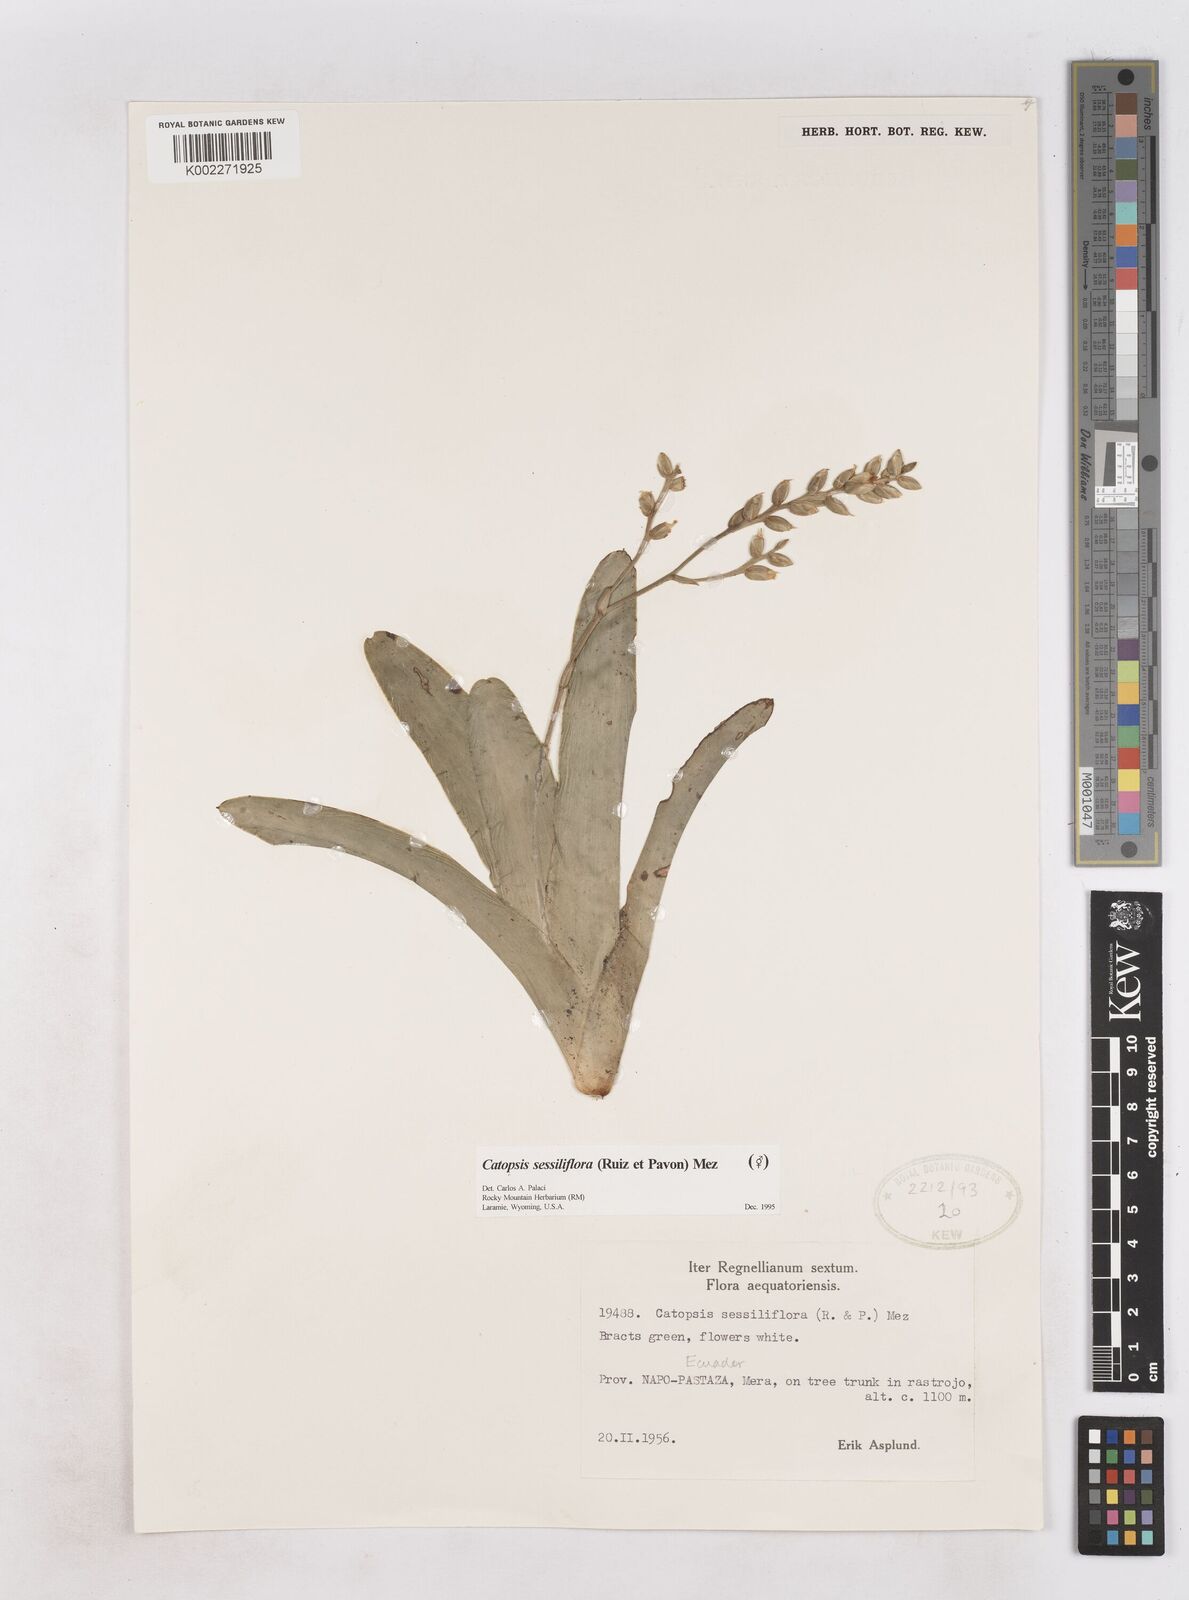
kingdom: Plantae
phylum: Tracheophyta
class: Liliopsida
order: Poales
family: Bromeliaceae
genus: Catopsis
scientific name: Catopsis sessiliflora
